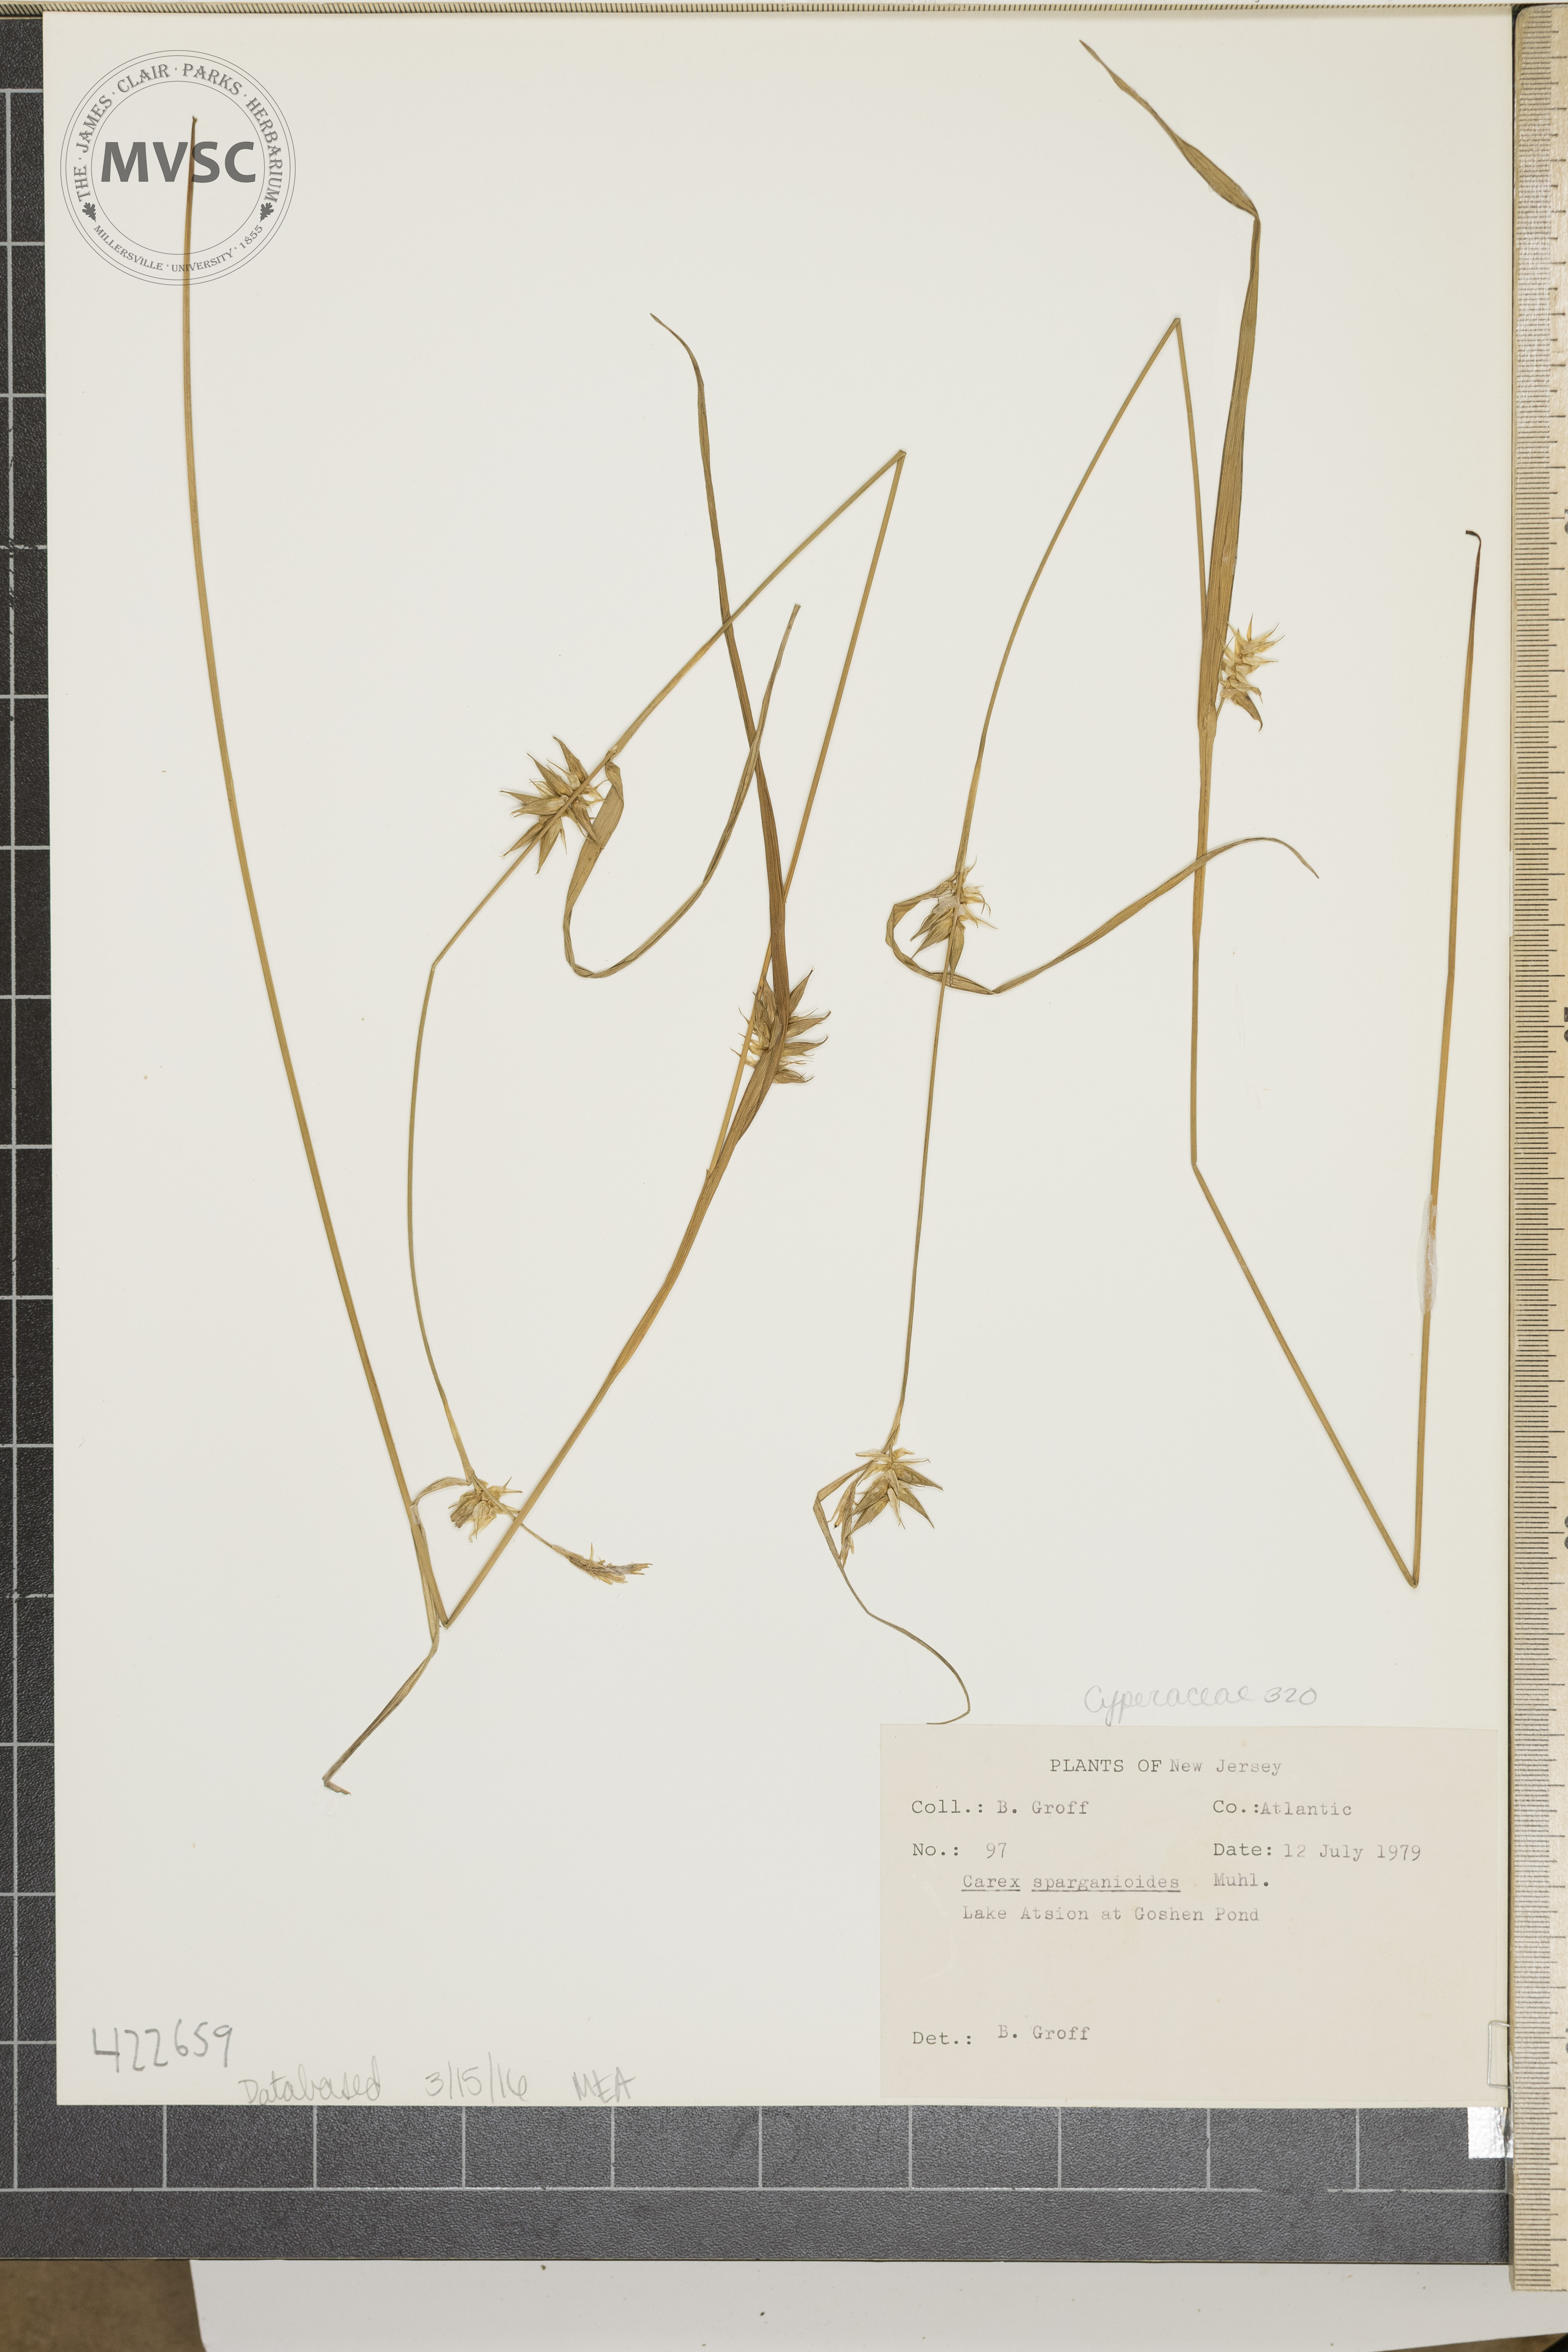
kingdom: Plantae
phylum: Tracheophyta
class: Liliopsida
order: Poales
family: Cyperaceae
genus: Carex
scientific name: Carex folliculata
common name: Northern long sedge
